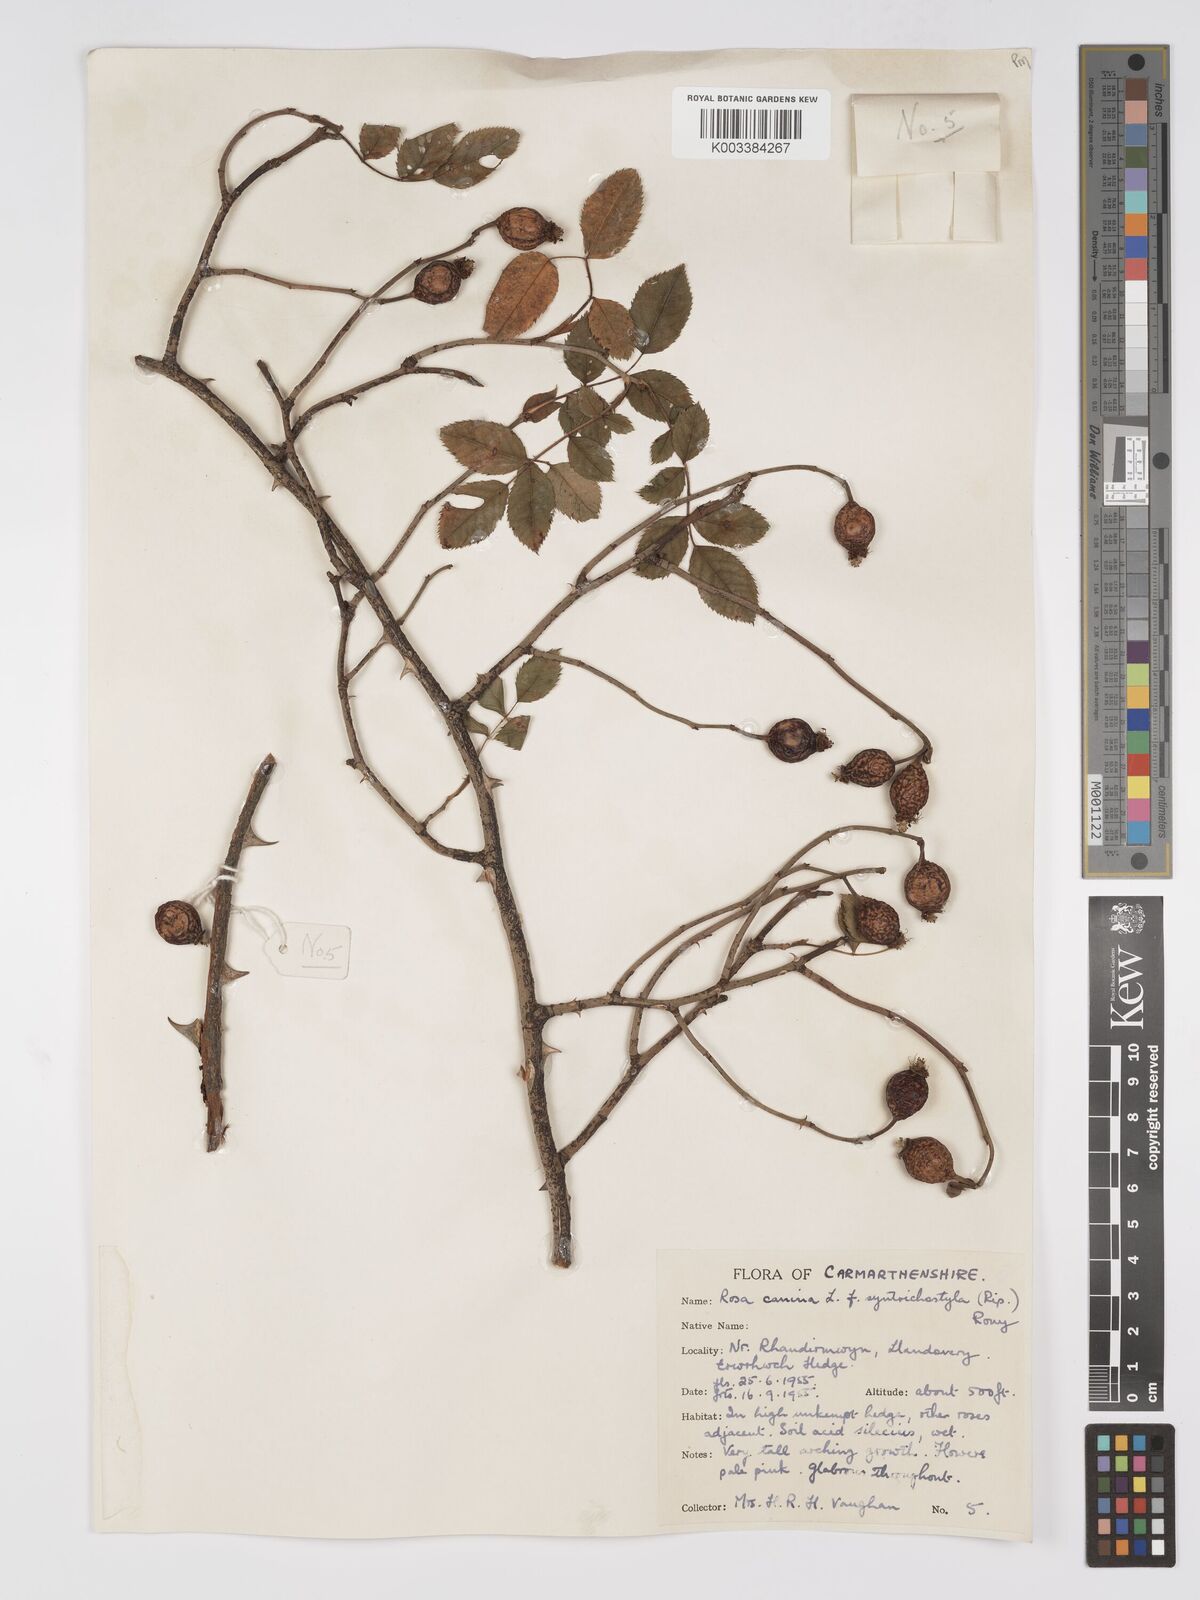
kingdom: Plantae
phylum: Tracheophyta
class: Magnoliopsida
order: Rosales
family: Rosaceae
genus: Rosa
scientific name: Rosa canina
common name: Dog rose
